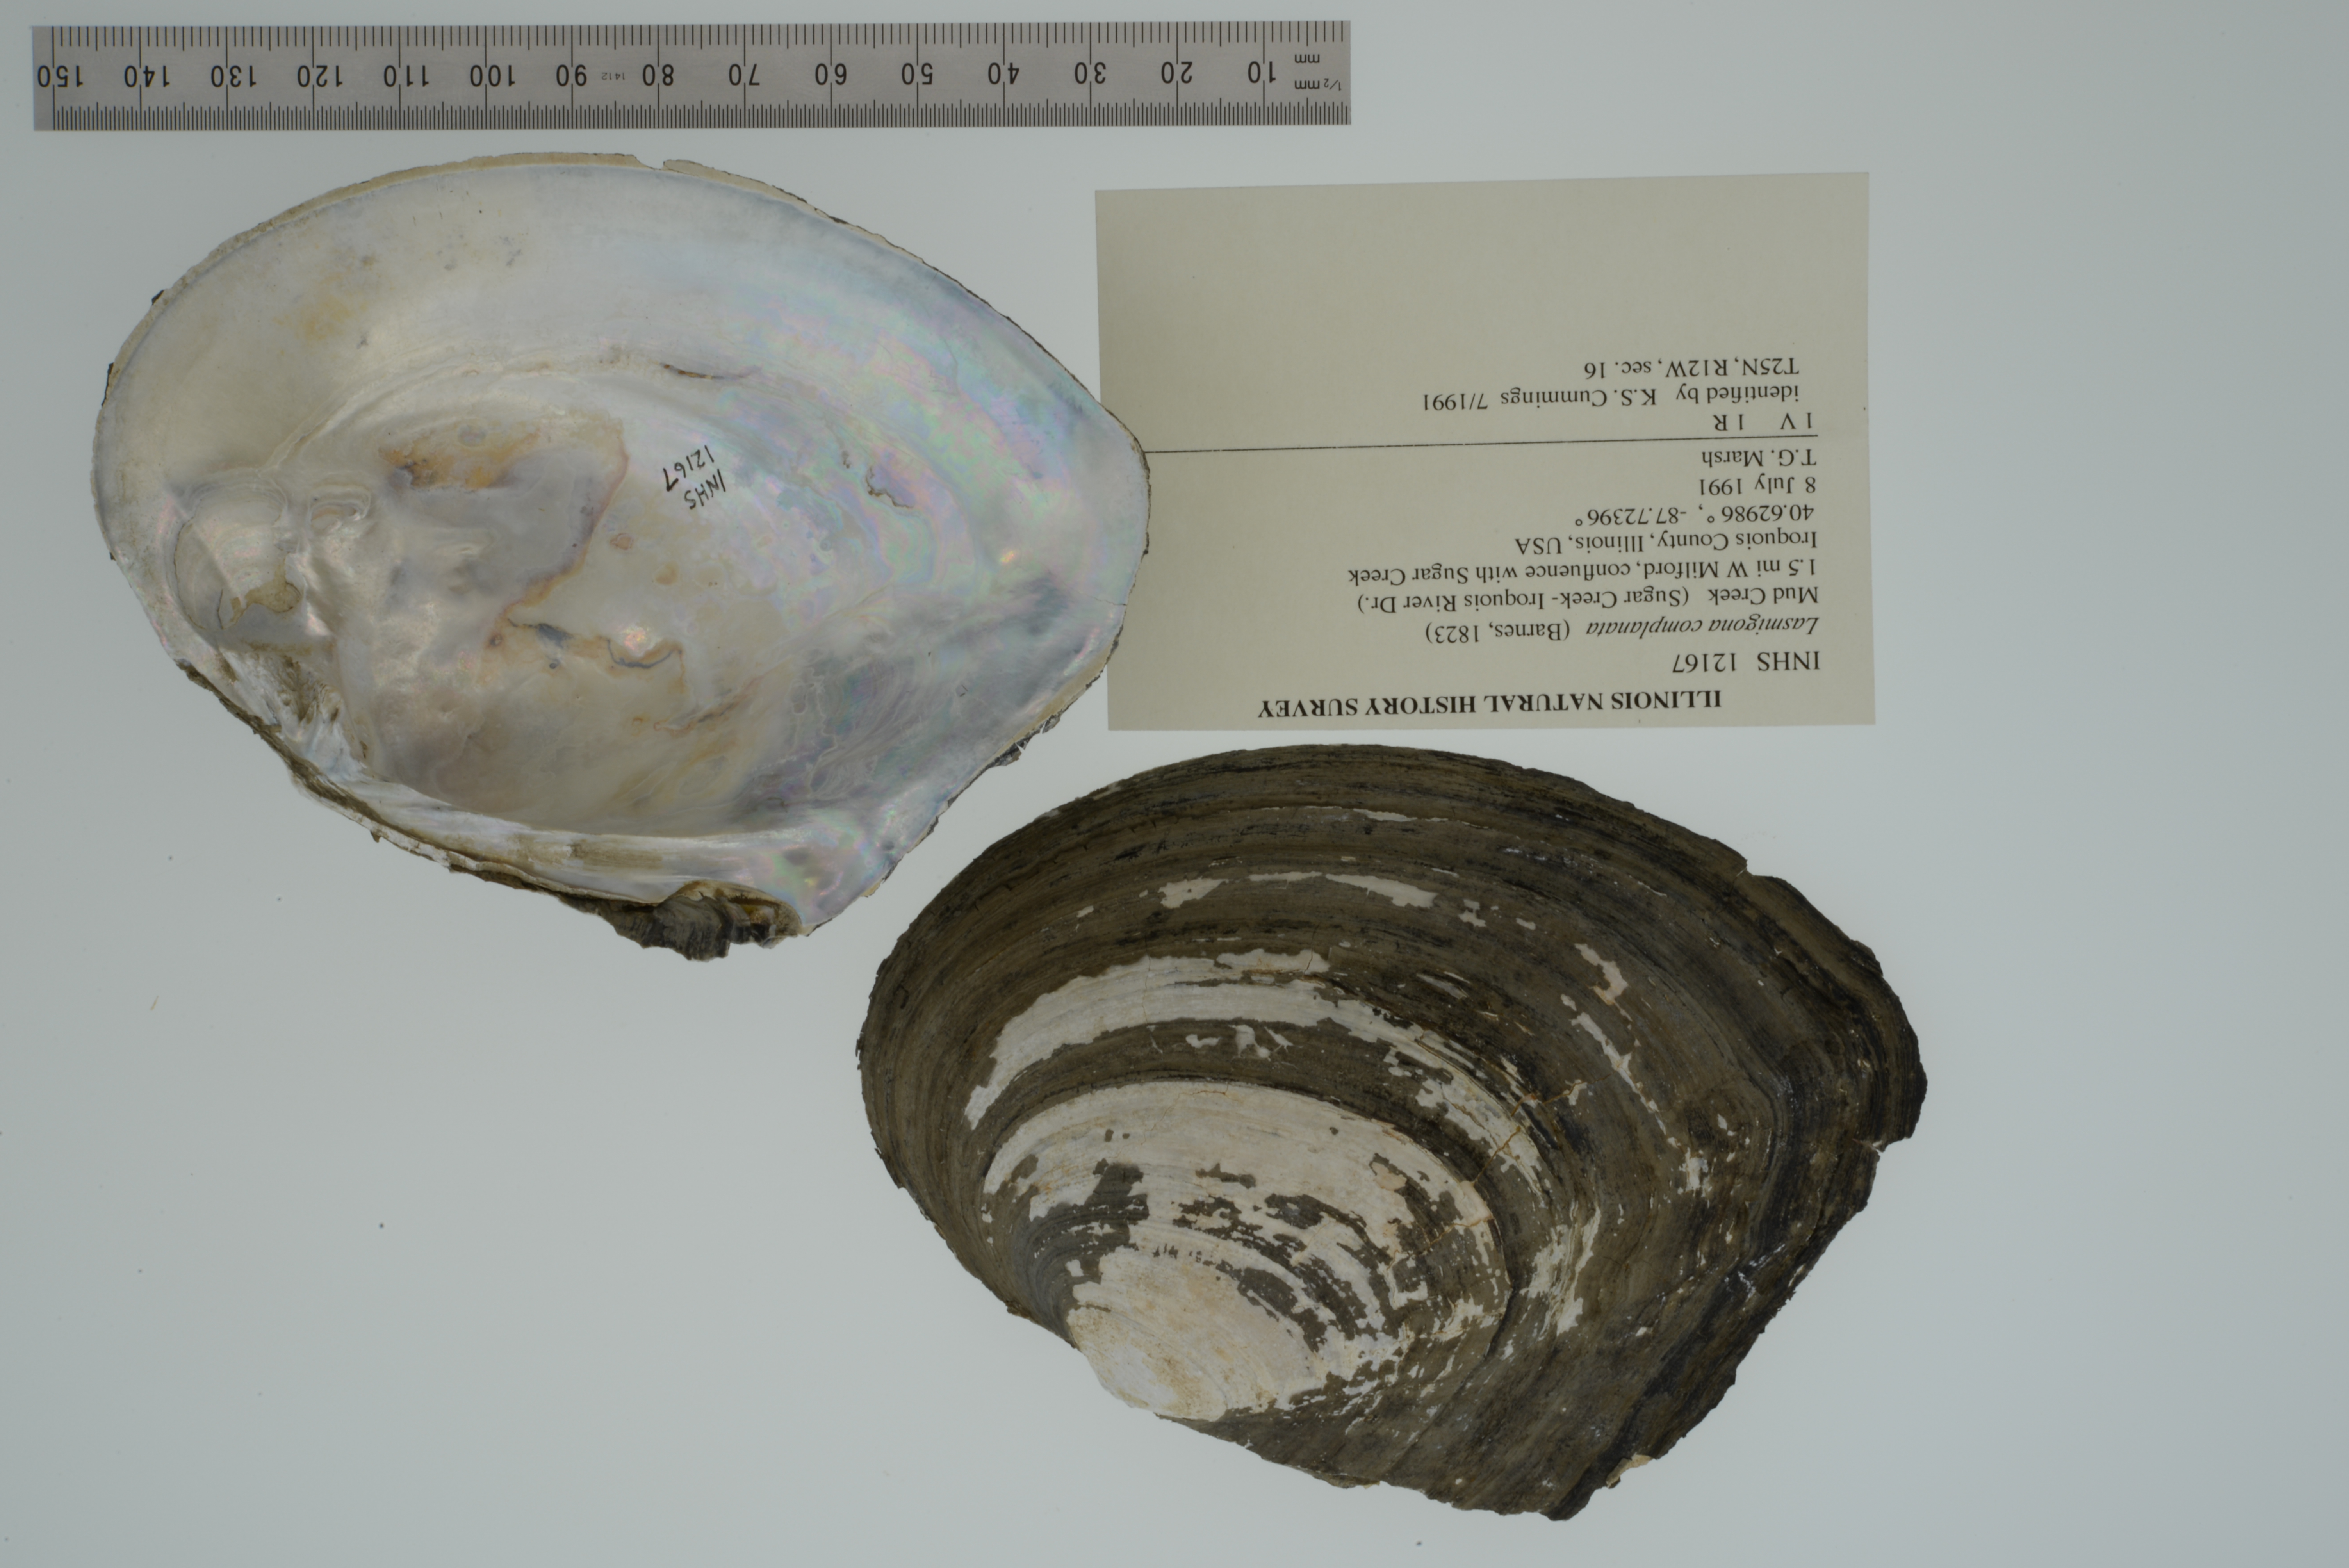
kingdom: Animalia
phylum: Mollusca
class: Bivalvia
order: Unionida
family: Unionidae
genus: Lasmigona
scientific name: Lasmigona complanata
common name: White heelsplitter
